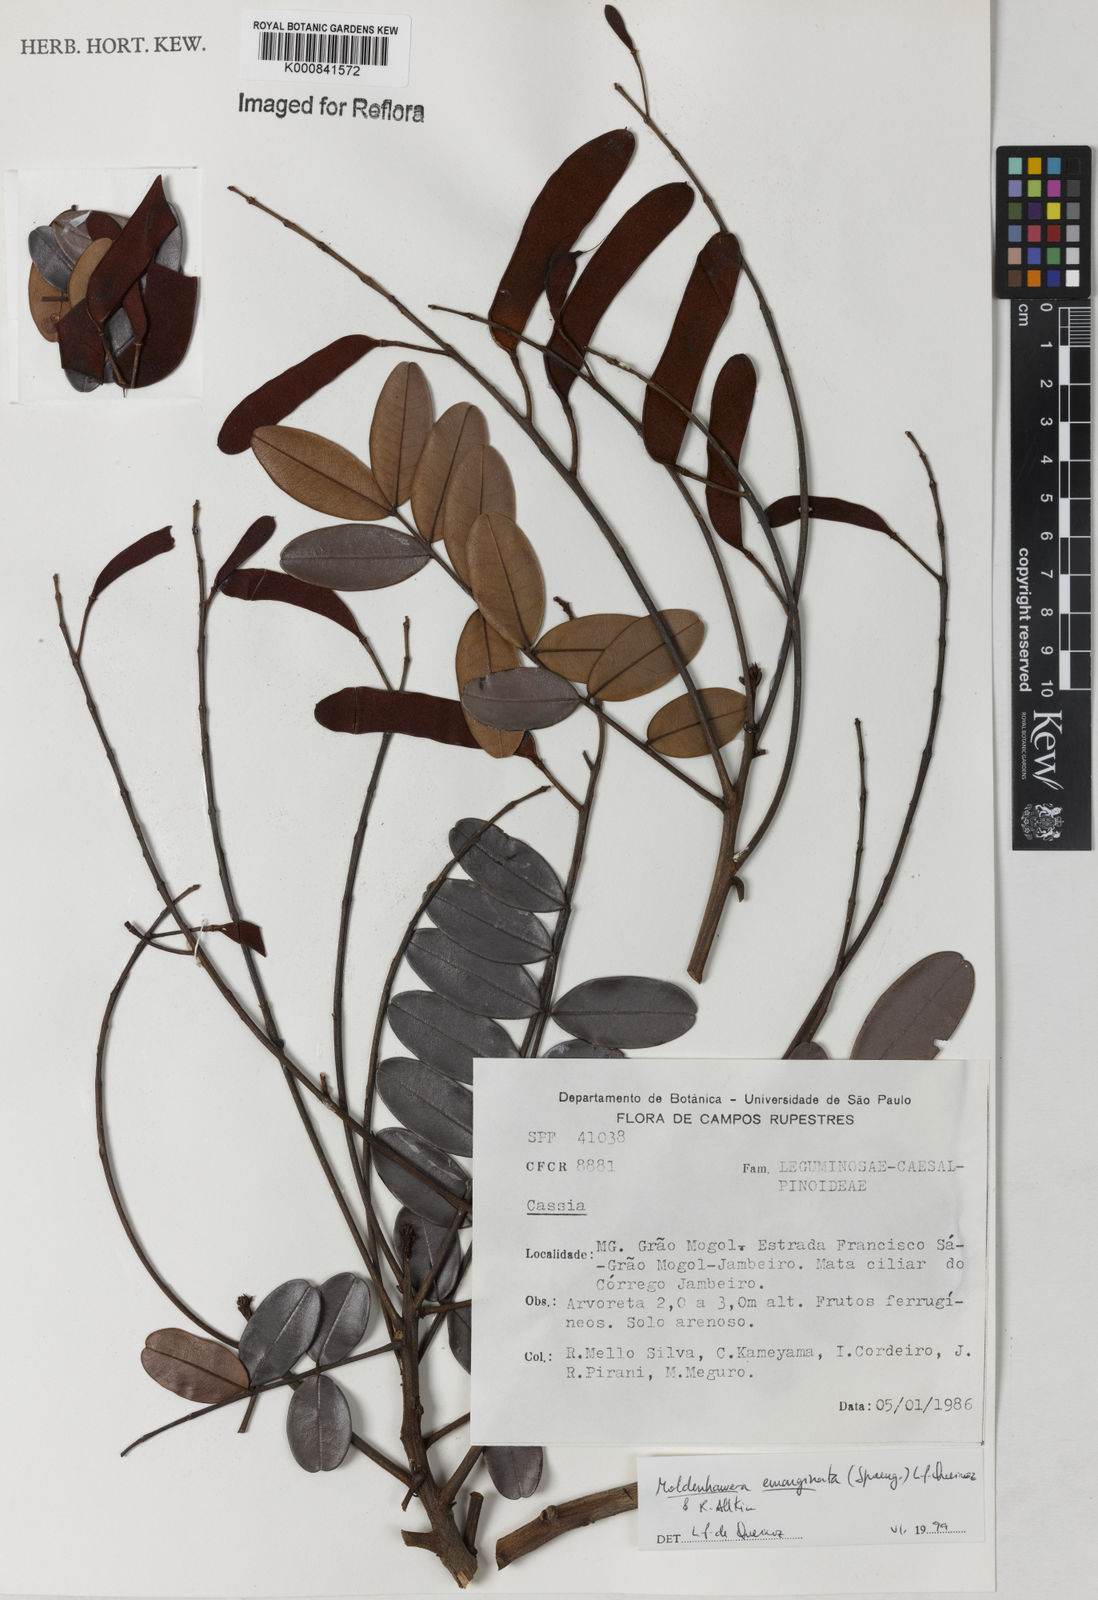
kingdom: Plantae
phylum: Tracheophyta
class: Magnoliopsida
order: Fabales
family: Fabaceae
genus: Moldenhawera
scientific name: Moldenhawera emarginata
